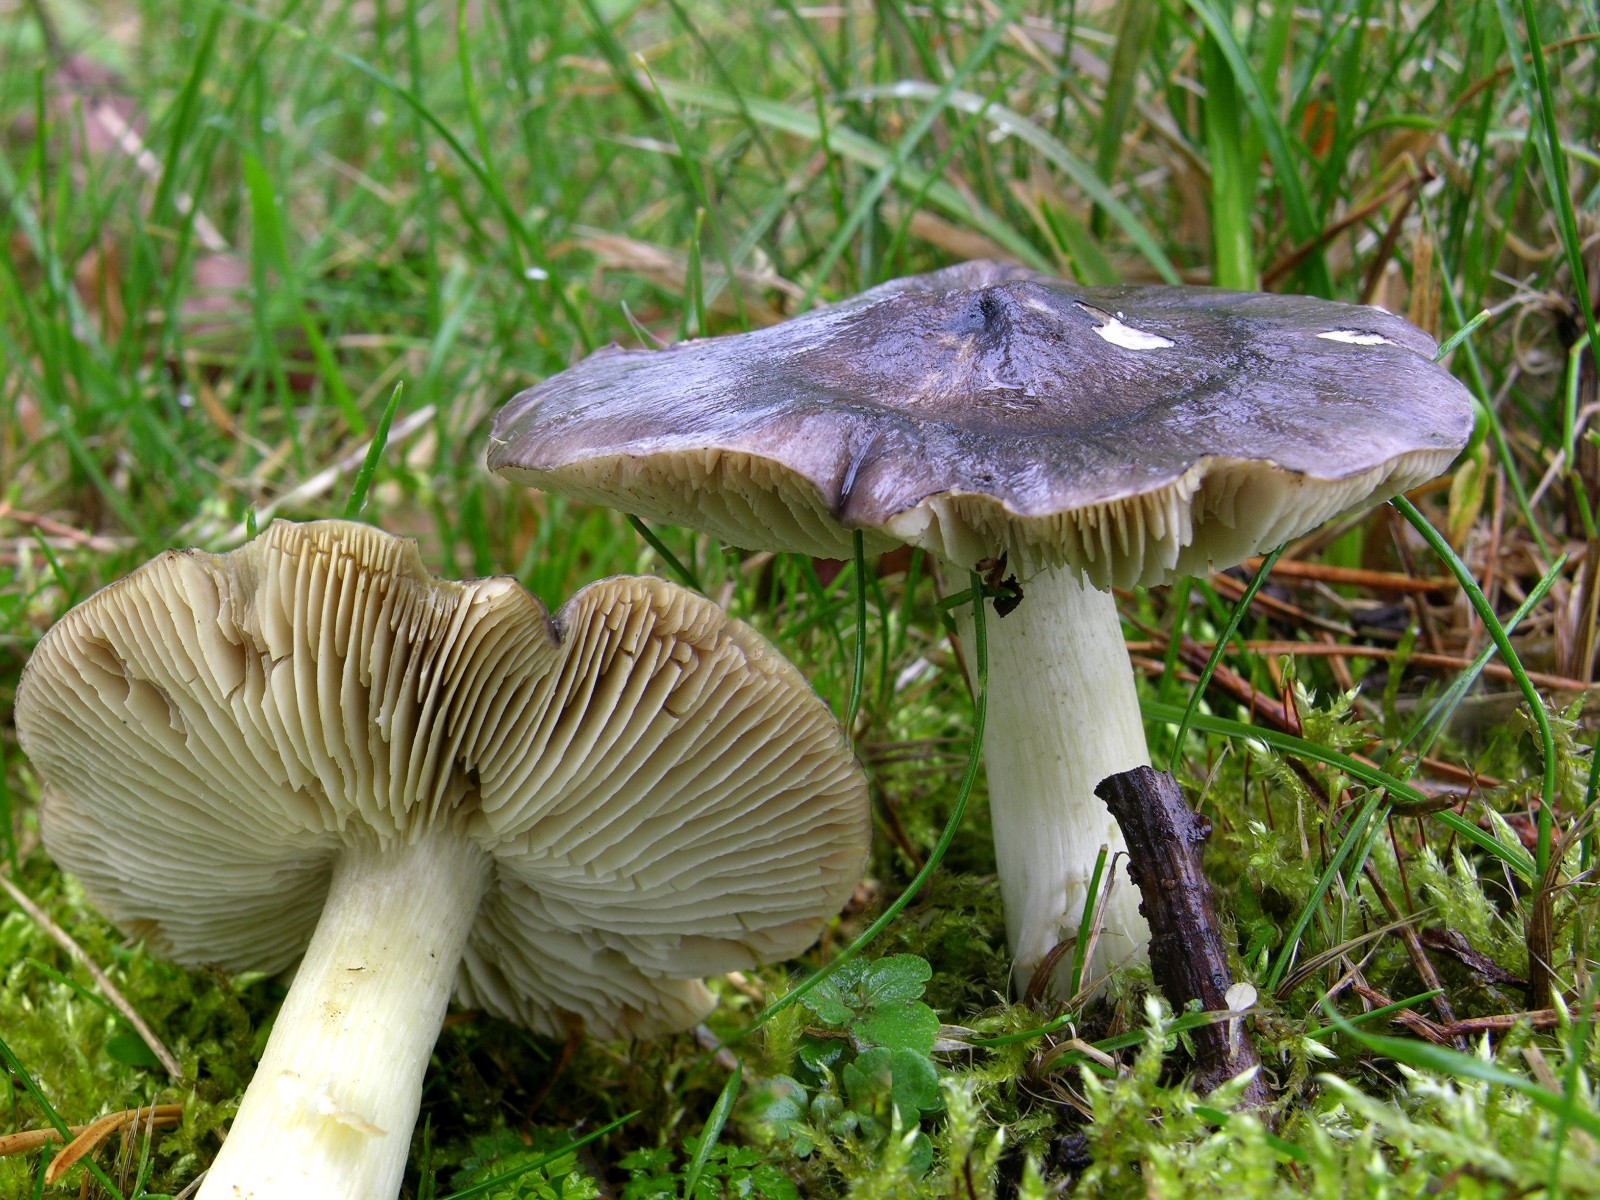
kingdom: Fungi
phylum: Basidiomycota
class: Agaricomycetes
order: Agaricales
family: Tricholomataceae
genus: Tricholoma
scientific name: Tricholoma portentosum
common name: grå ridderhat
